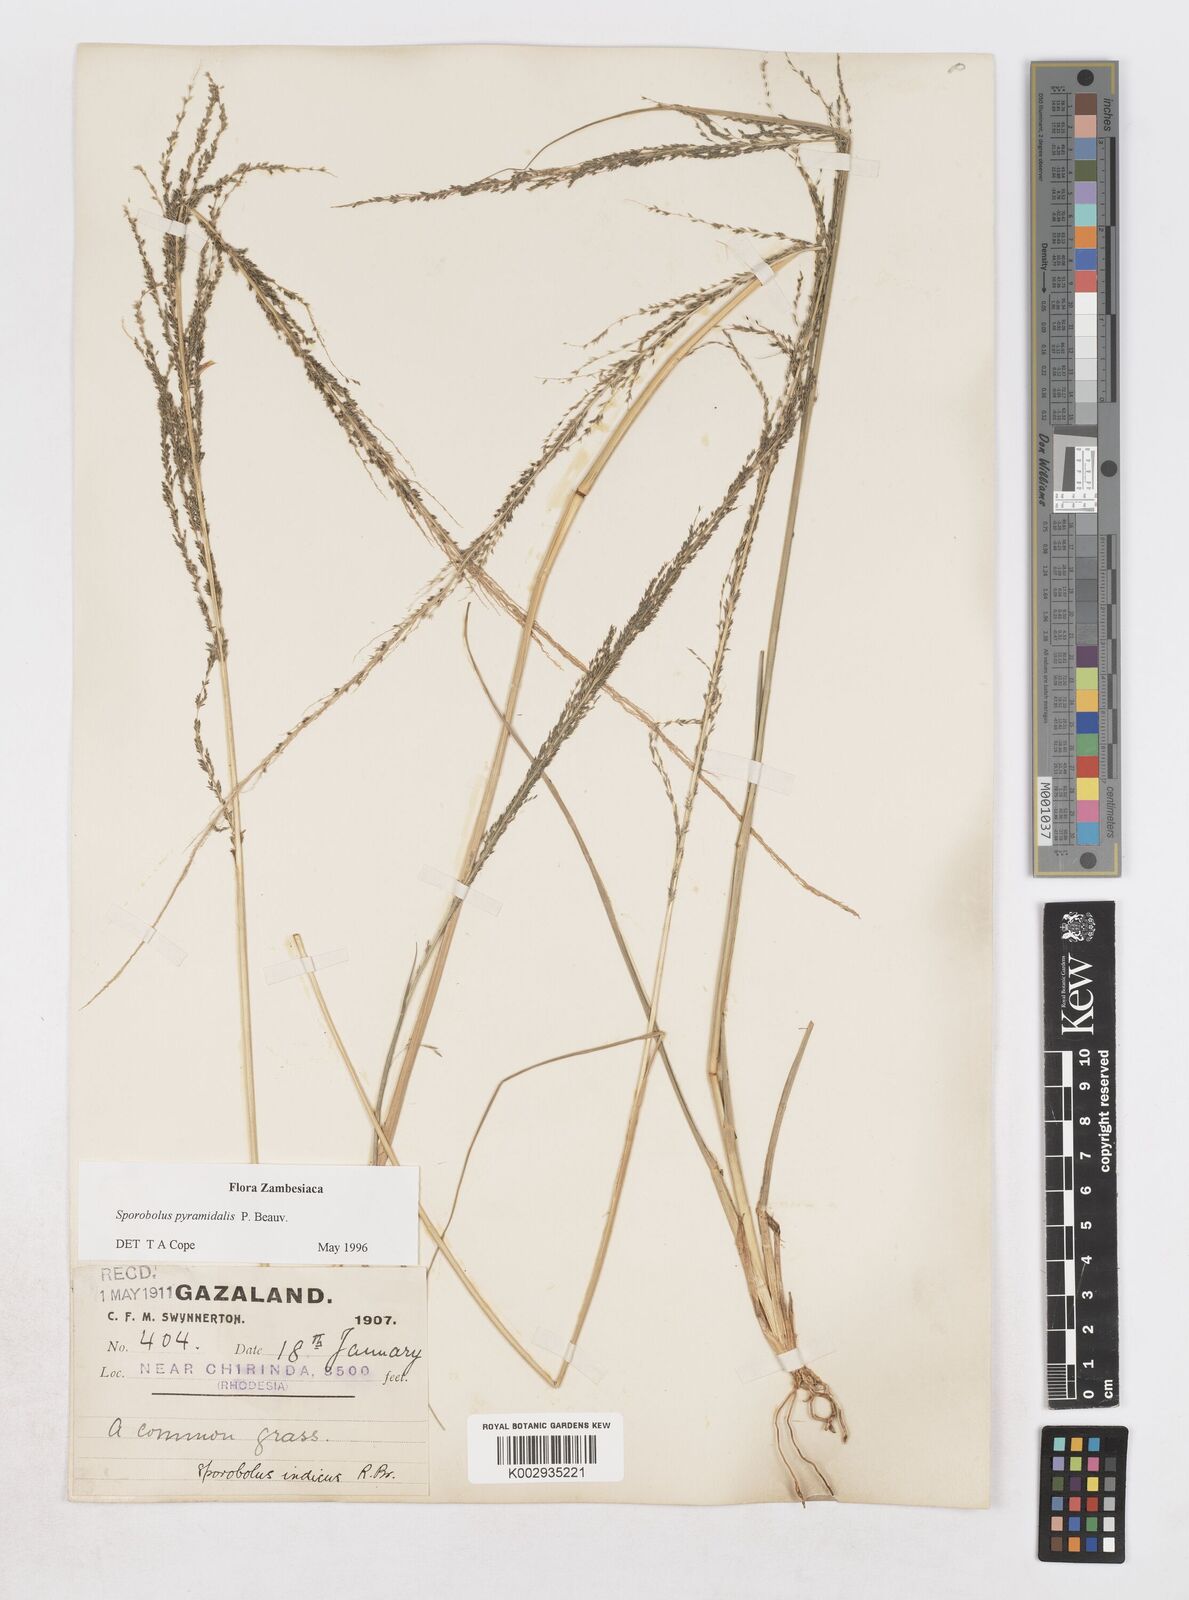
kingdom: Plantae
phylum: Tracheophyta
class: Liliopsida
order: Poales
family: Poaceae
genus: Sporobolus
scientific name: Sporobolus pyramidalis
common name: West indian dropseed
